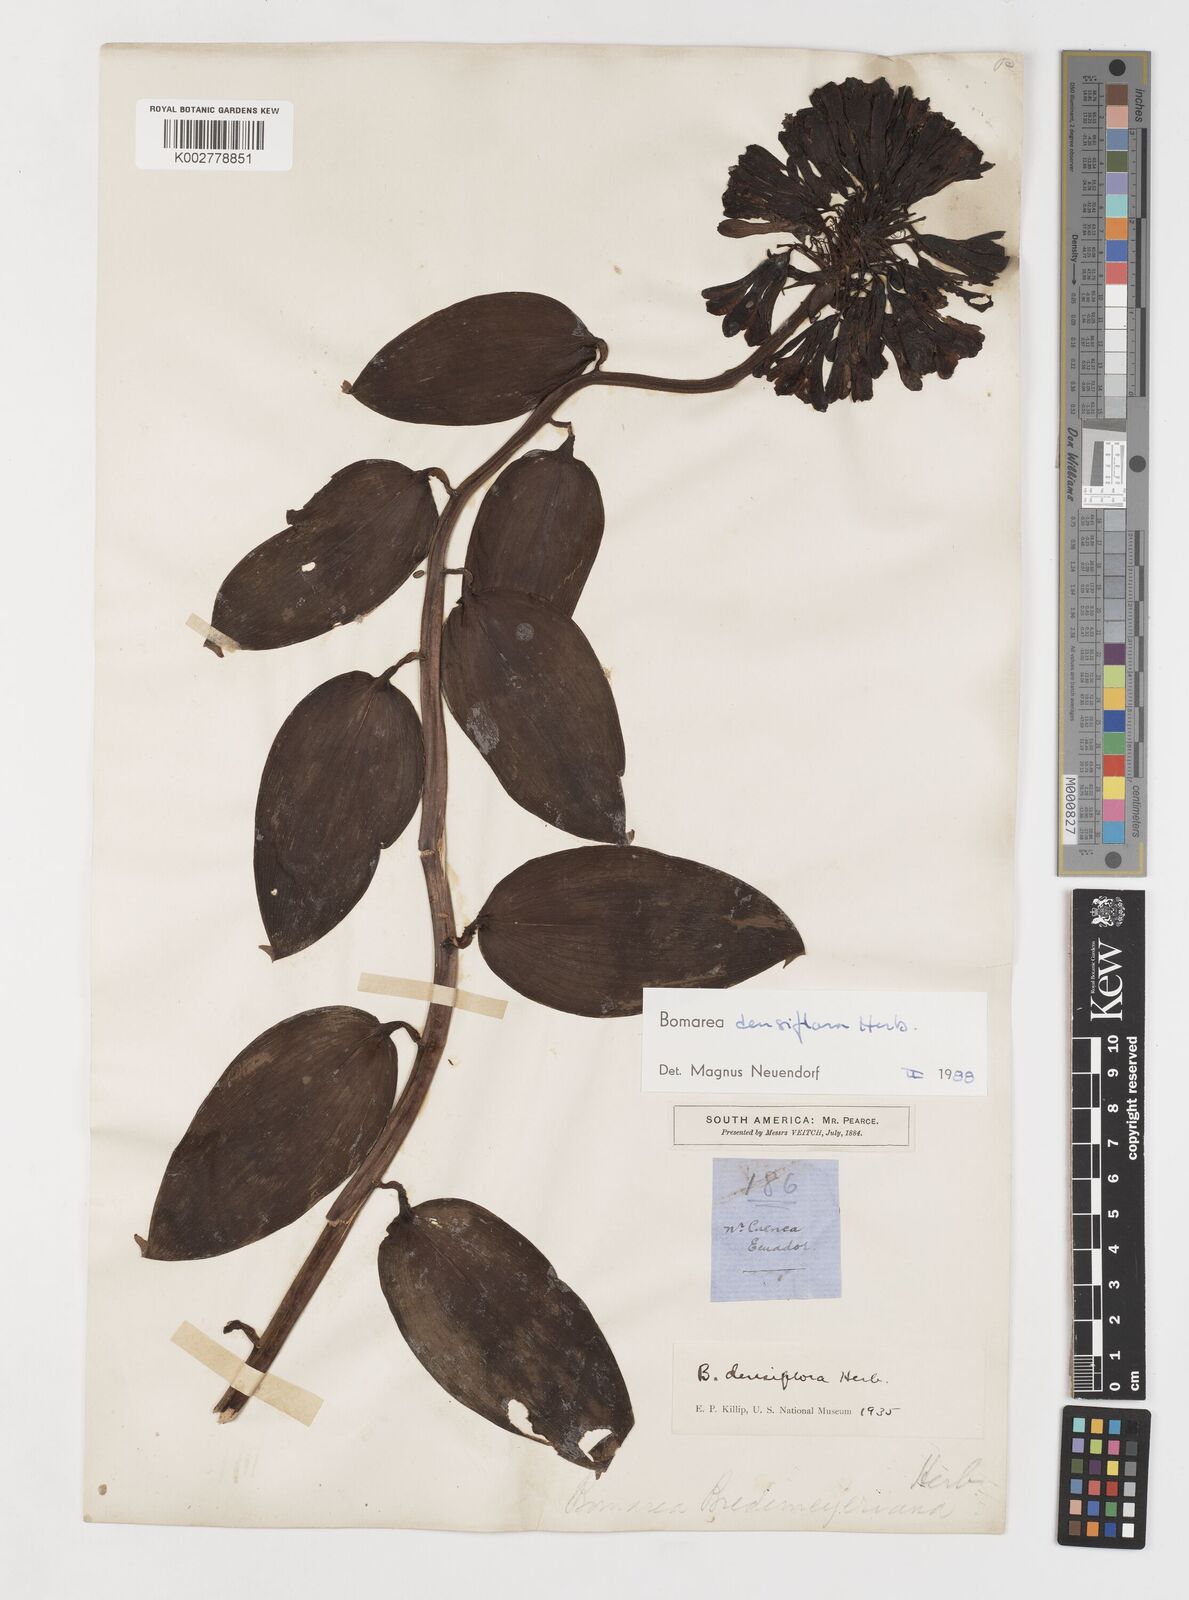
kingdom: Plantae
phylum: Tracheophyta
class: Liliopsida
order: Liliales
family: Alstroemeriaceae
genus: Bomarea
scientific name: Bomarea densiflora
